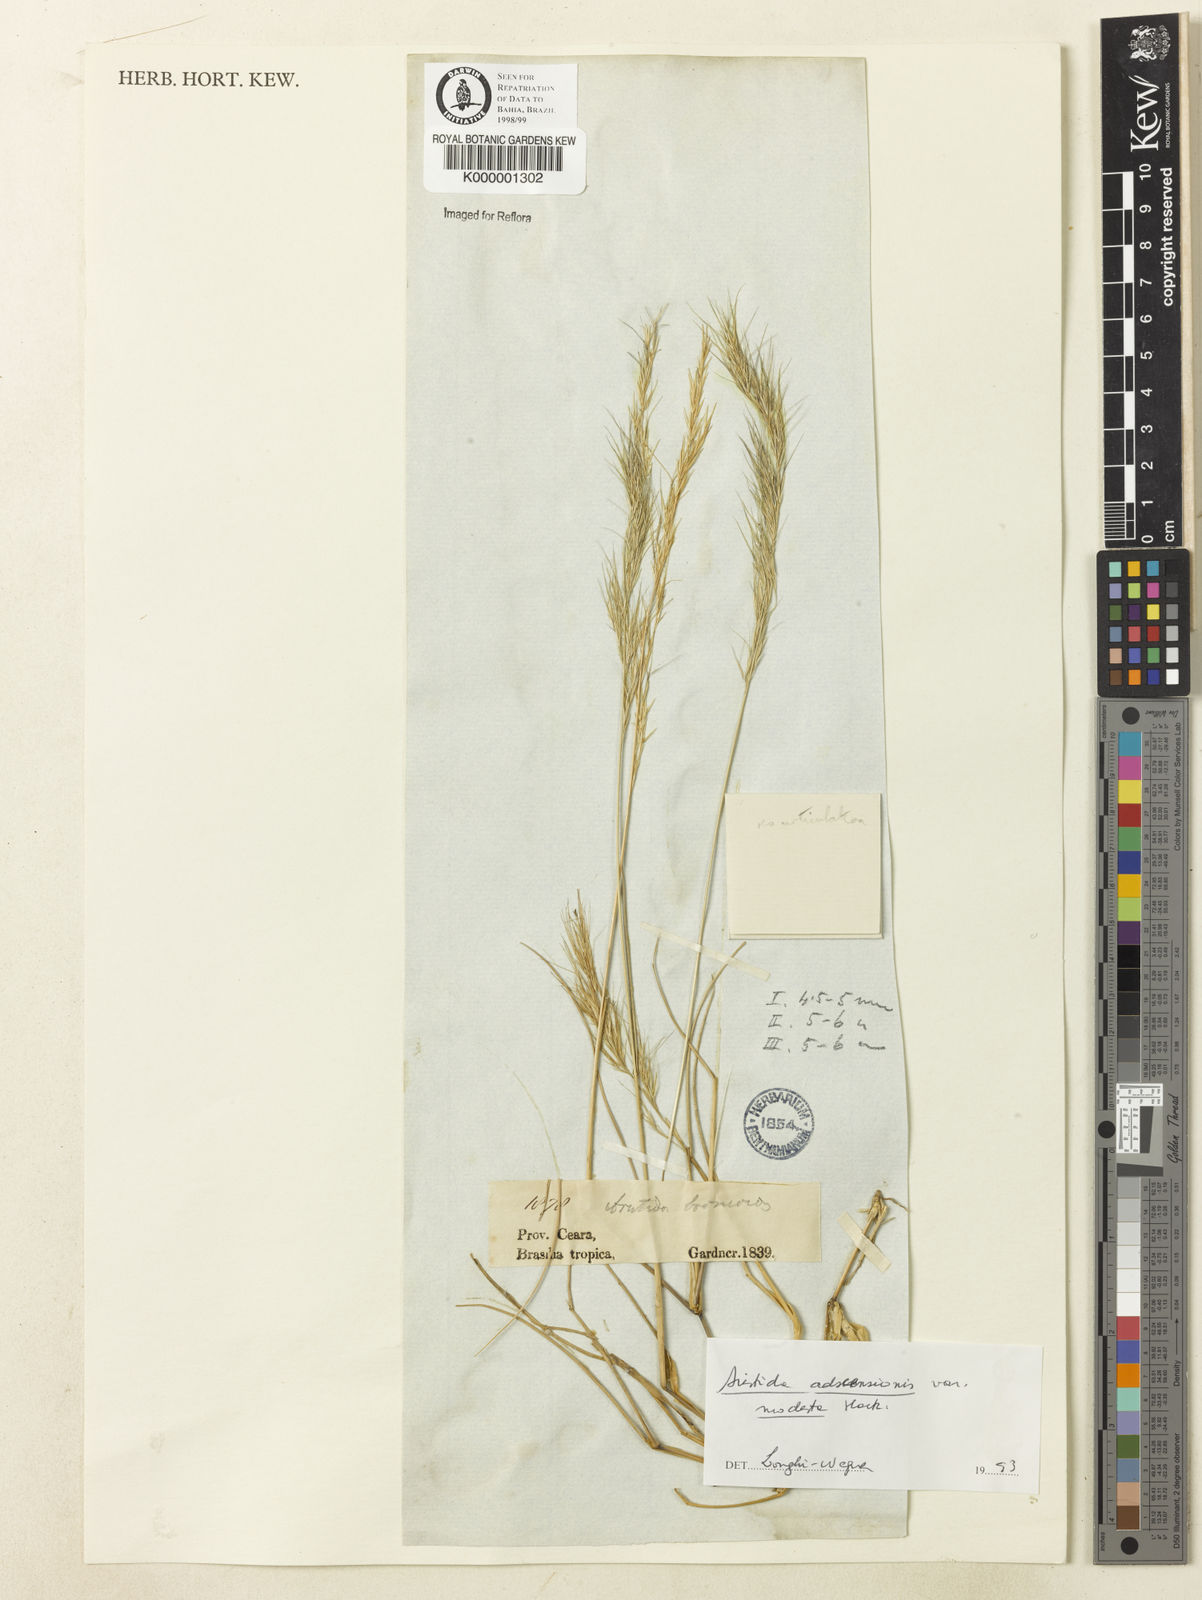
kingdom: Plantae
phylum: Tracheophyta
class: Liliopsida
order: Poales
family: Poaceae
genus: Aristida
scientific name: Aristida adscensionis
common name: Sixweeks threeawn
